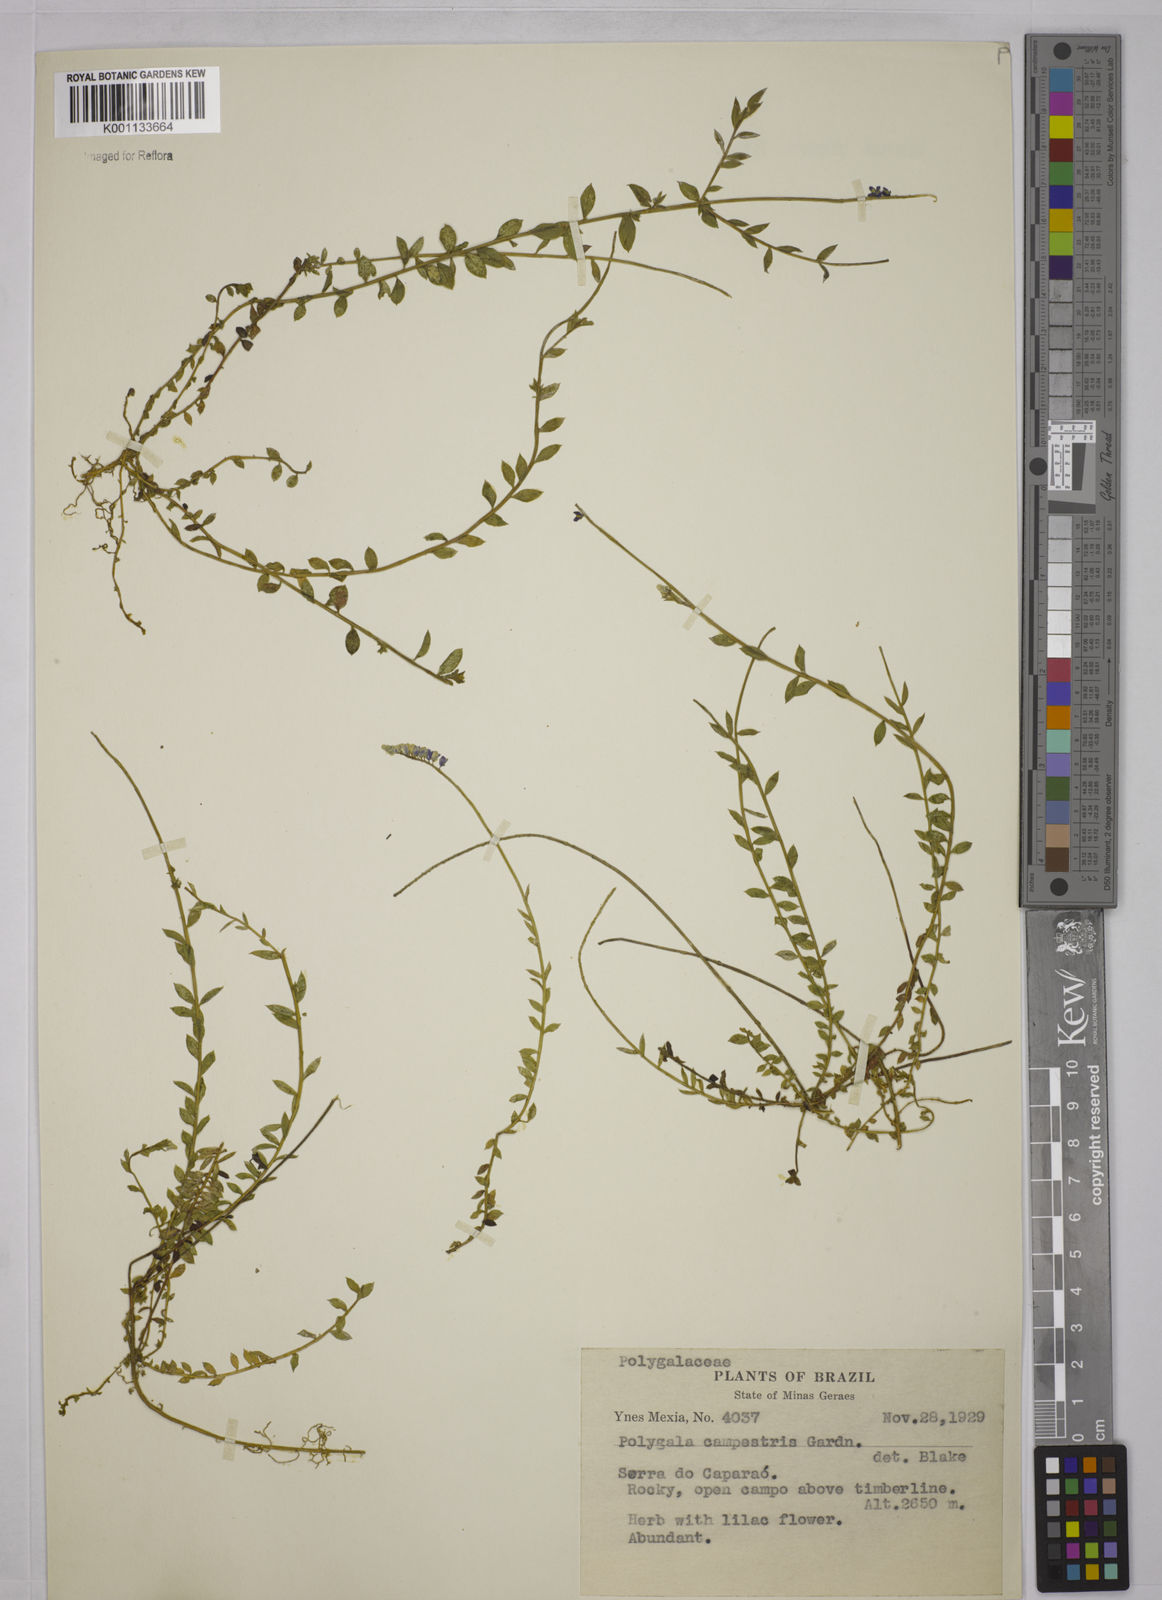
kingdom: Plantae
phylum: Tracheophyta
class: Magnoliopsida
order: Fabales
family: Polygalaceae
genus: Polygala
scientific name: Polygala campestris
